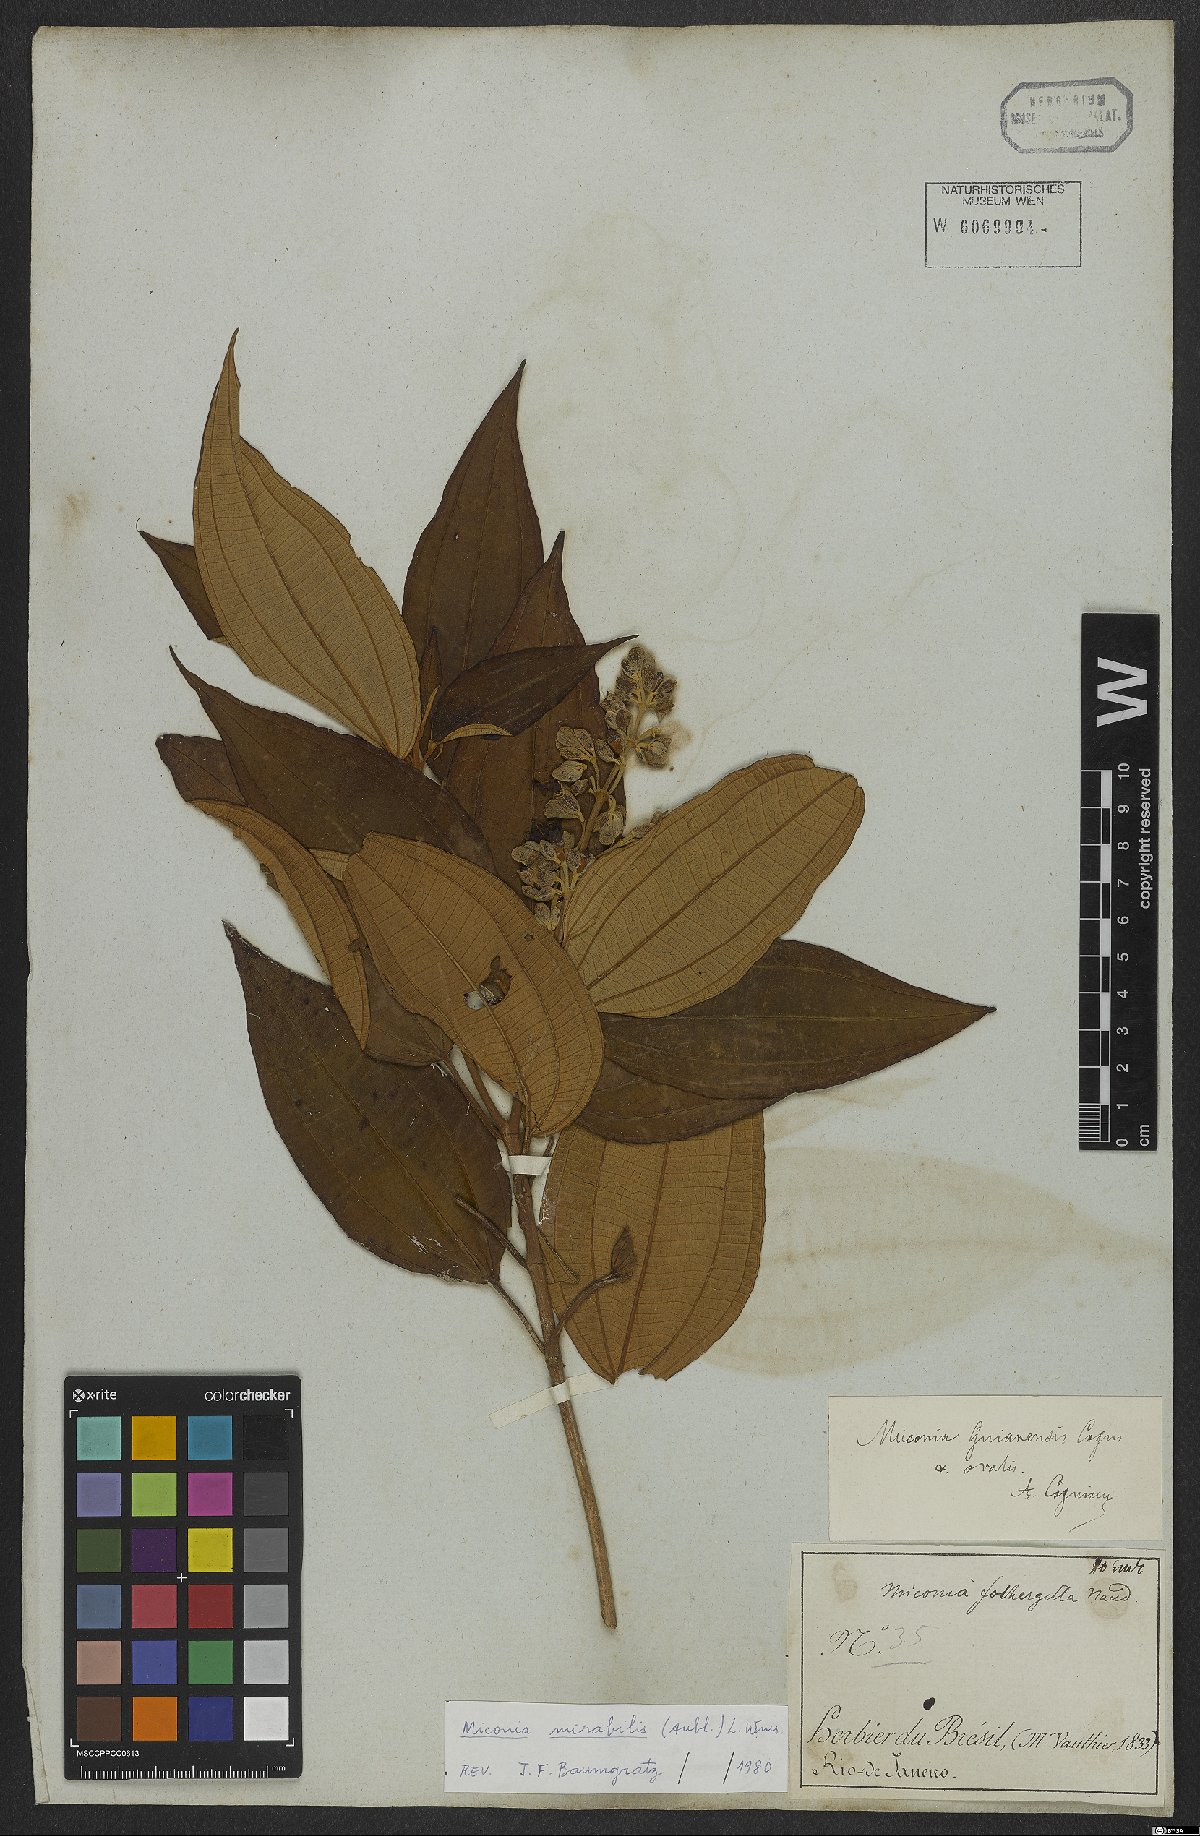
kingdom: Plantae
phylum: Tracheophyta
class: Magnoliopsida
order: Myrtales
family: Melastomataceae
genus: Miconia
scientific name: Miconia mirabilis
